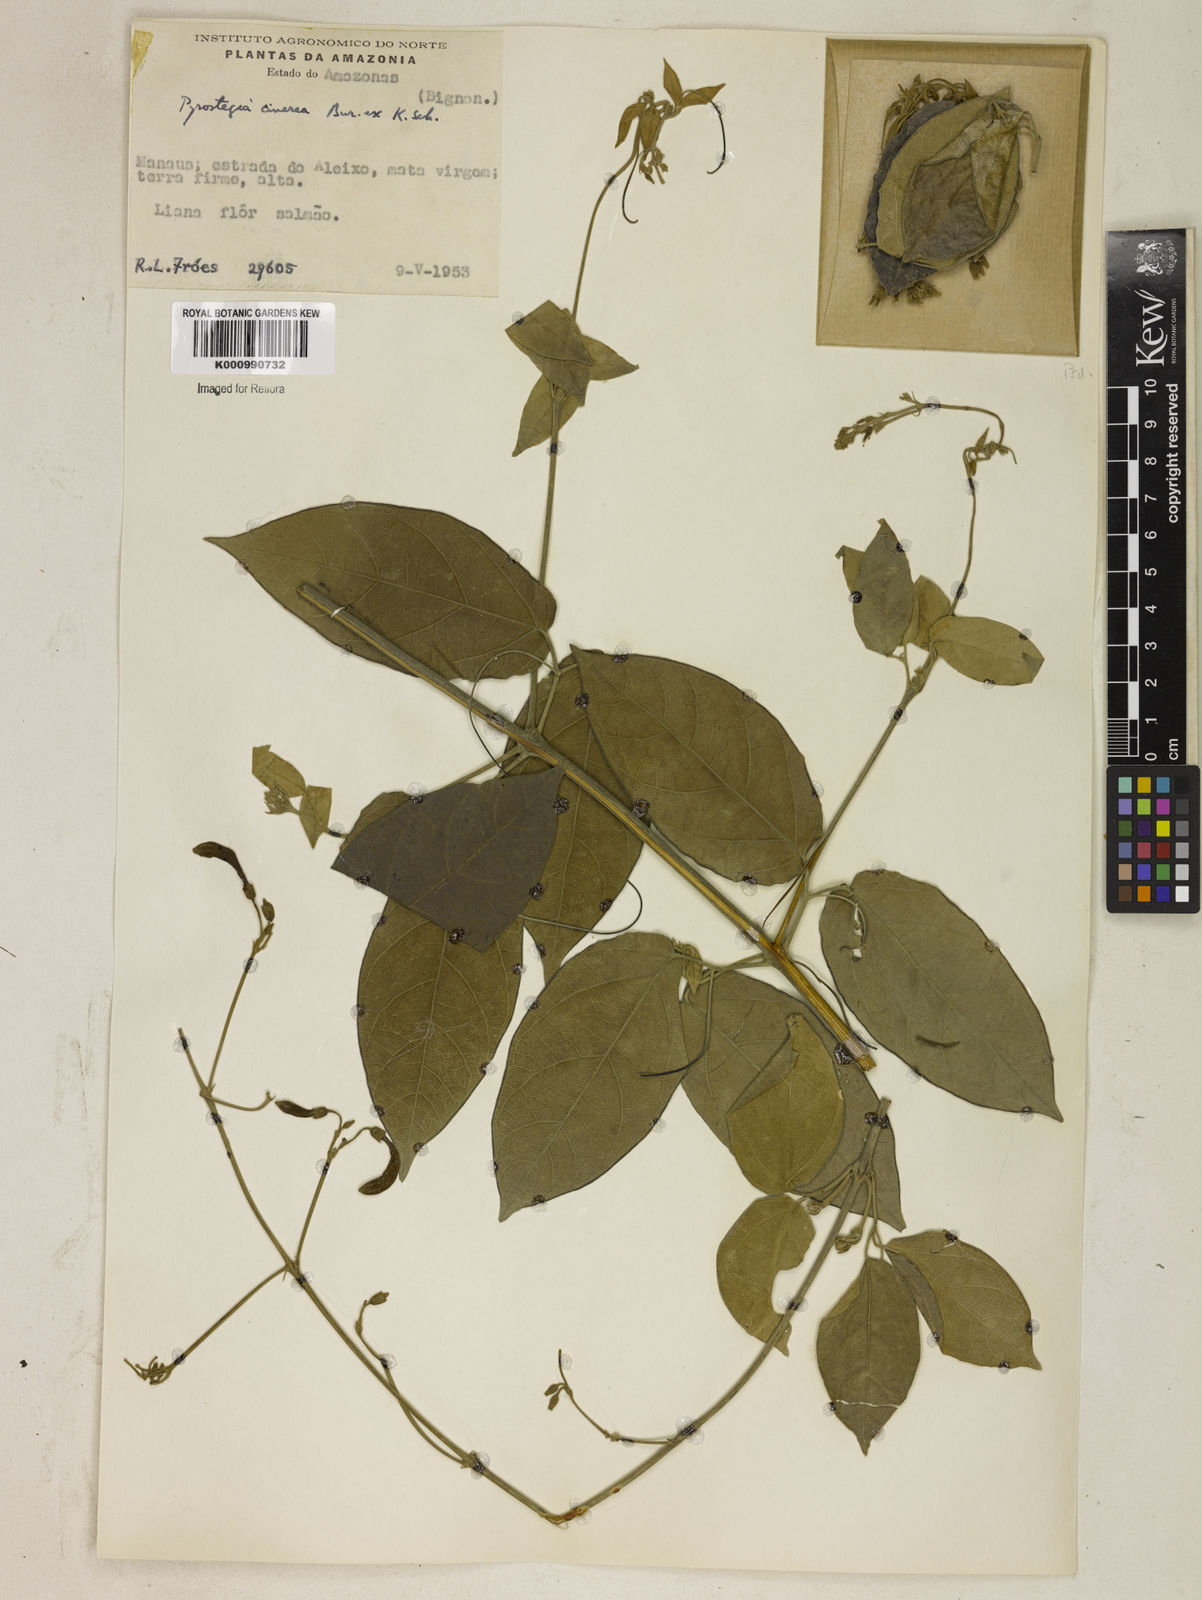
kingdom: Plantae
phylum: Tracheophyta
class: Magnoliopsida
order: Lamiales
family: Bignoniaceae
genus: Pyrostegia
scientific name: Pyrostegia
